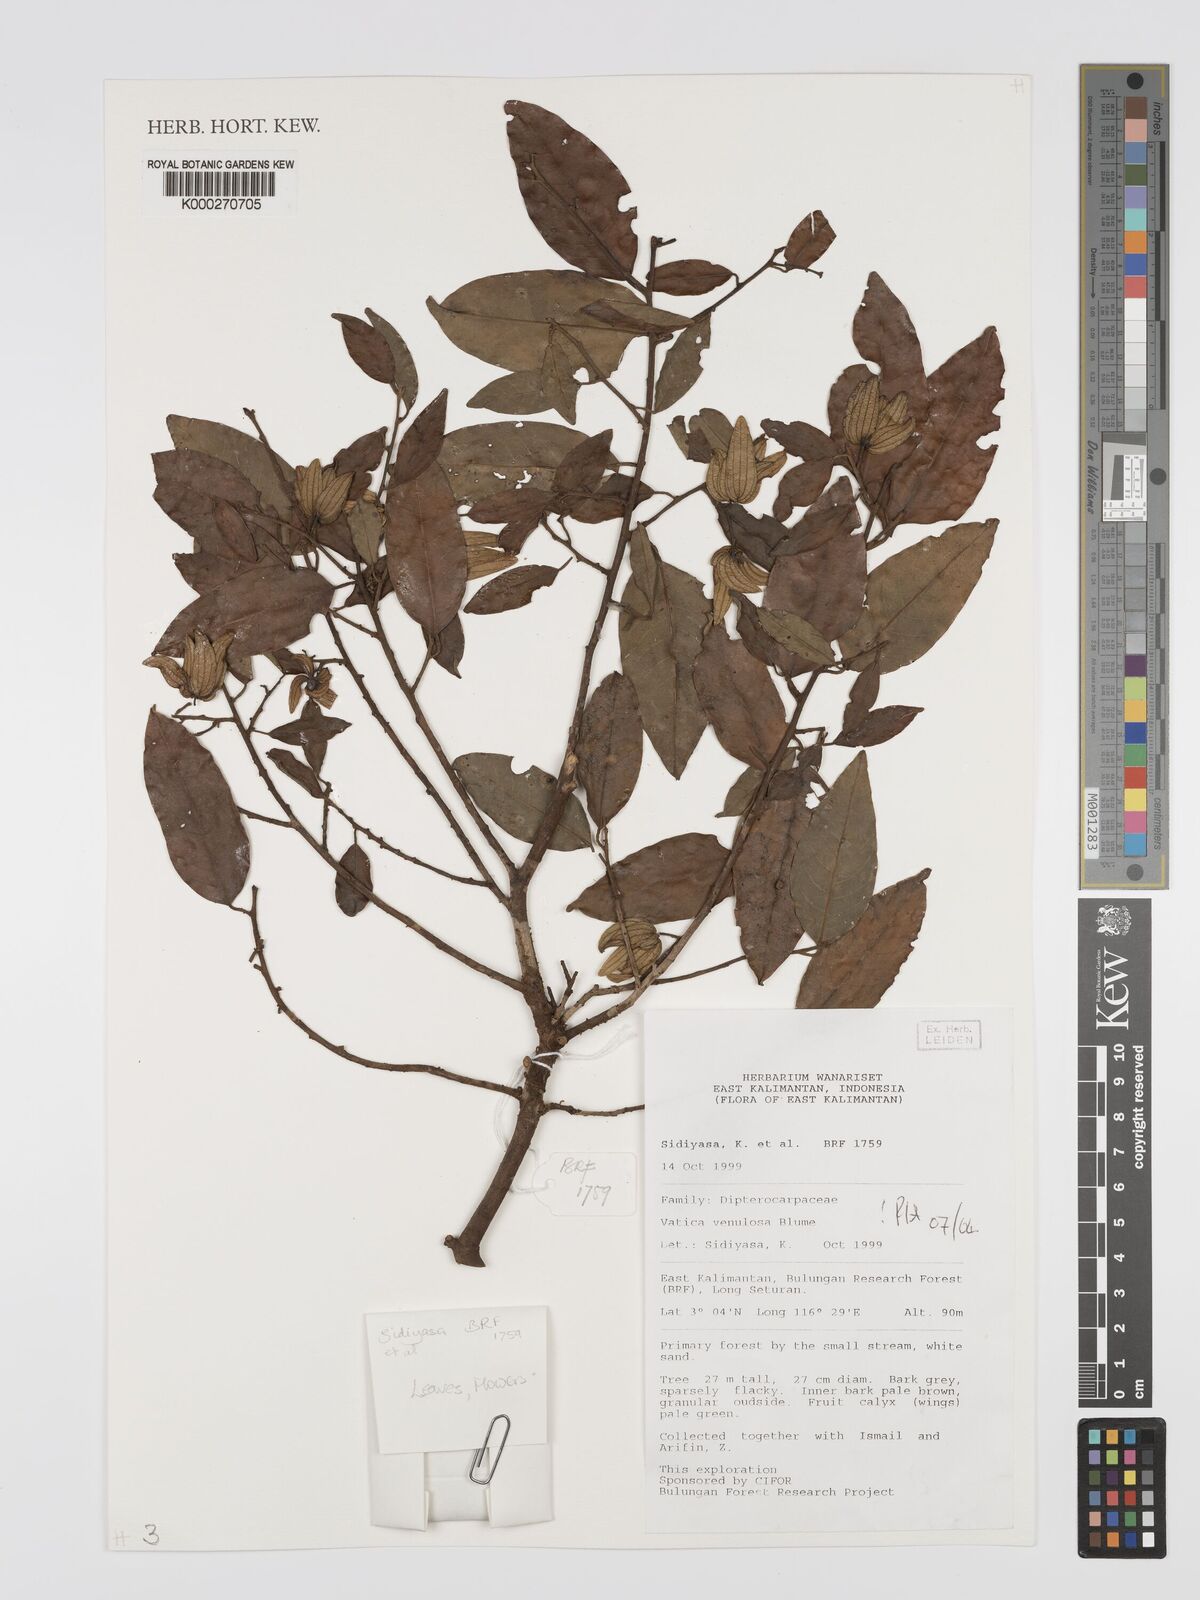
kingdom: Plantae
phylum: Tracheophyta
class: Magnoliopsida
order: Malvales
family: Dipterocarpaceae
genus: Vatica
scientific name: Vatica venulosa
